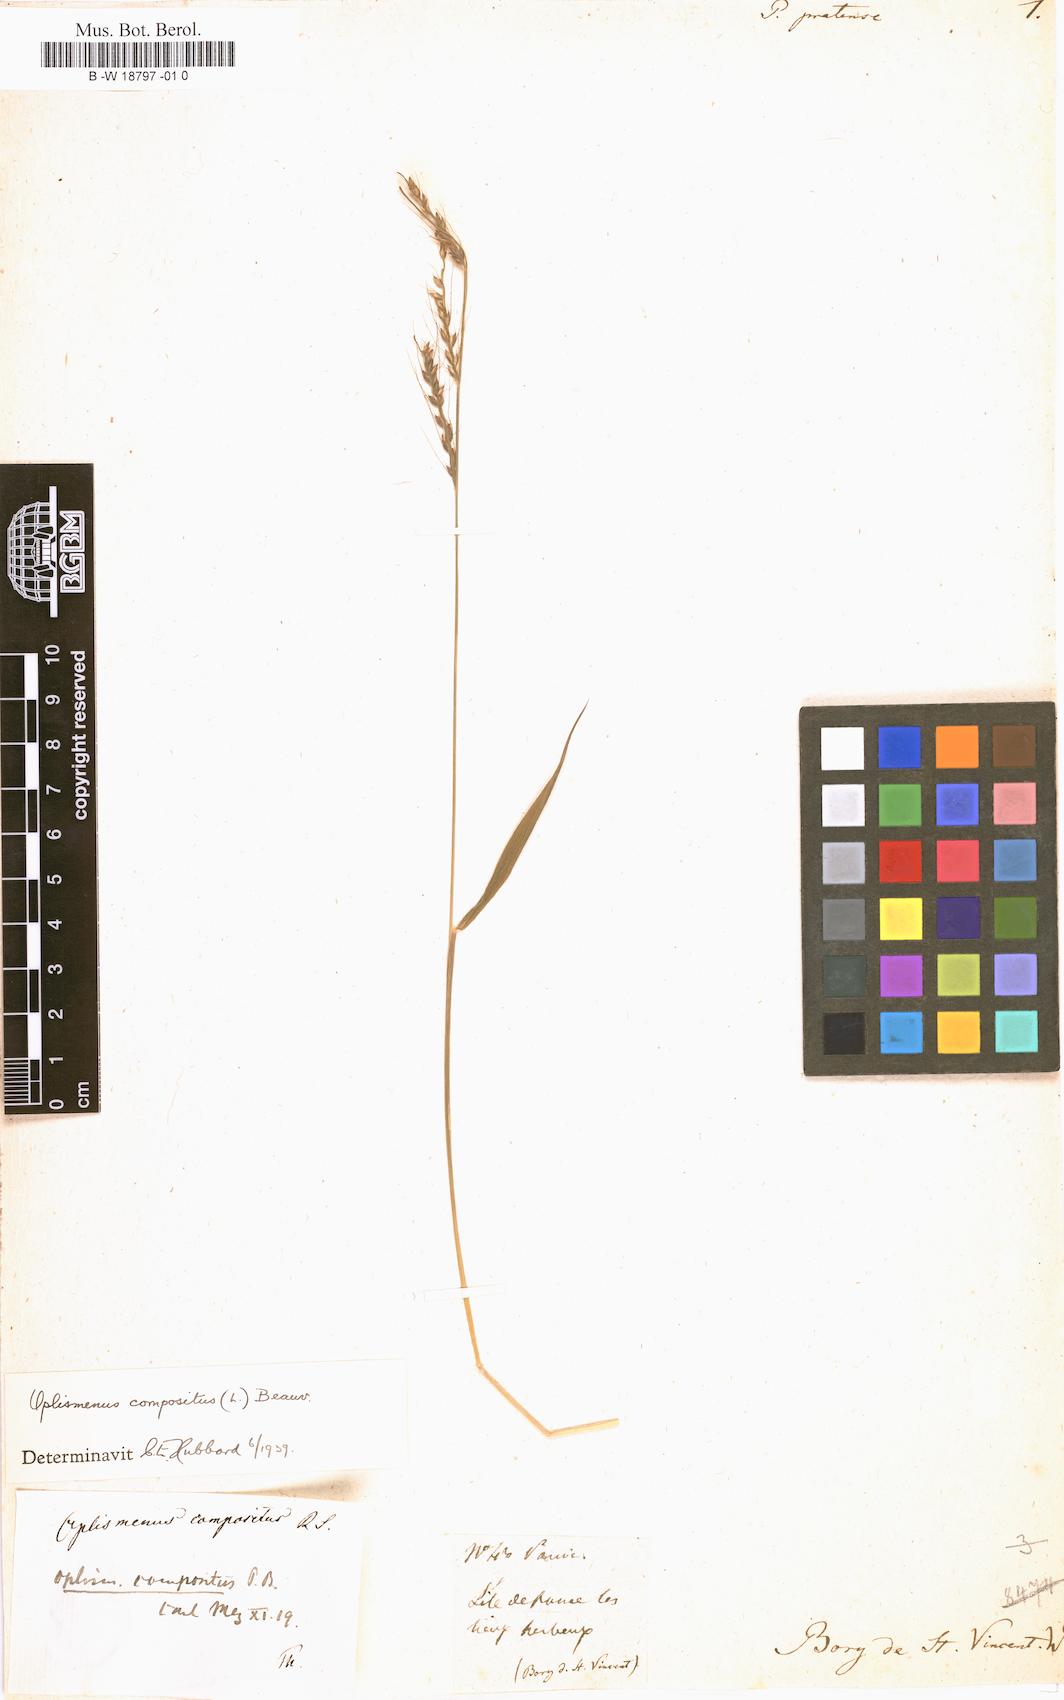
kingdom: Plantae
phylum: Tracheophyta
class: Liliopsida
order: Poales
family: Poaceae
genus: Oplismenus
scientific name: Oplismenus compositus
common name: Running mountain grass
